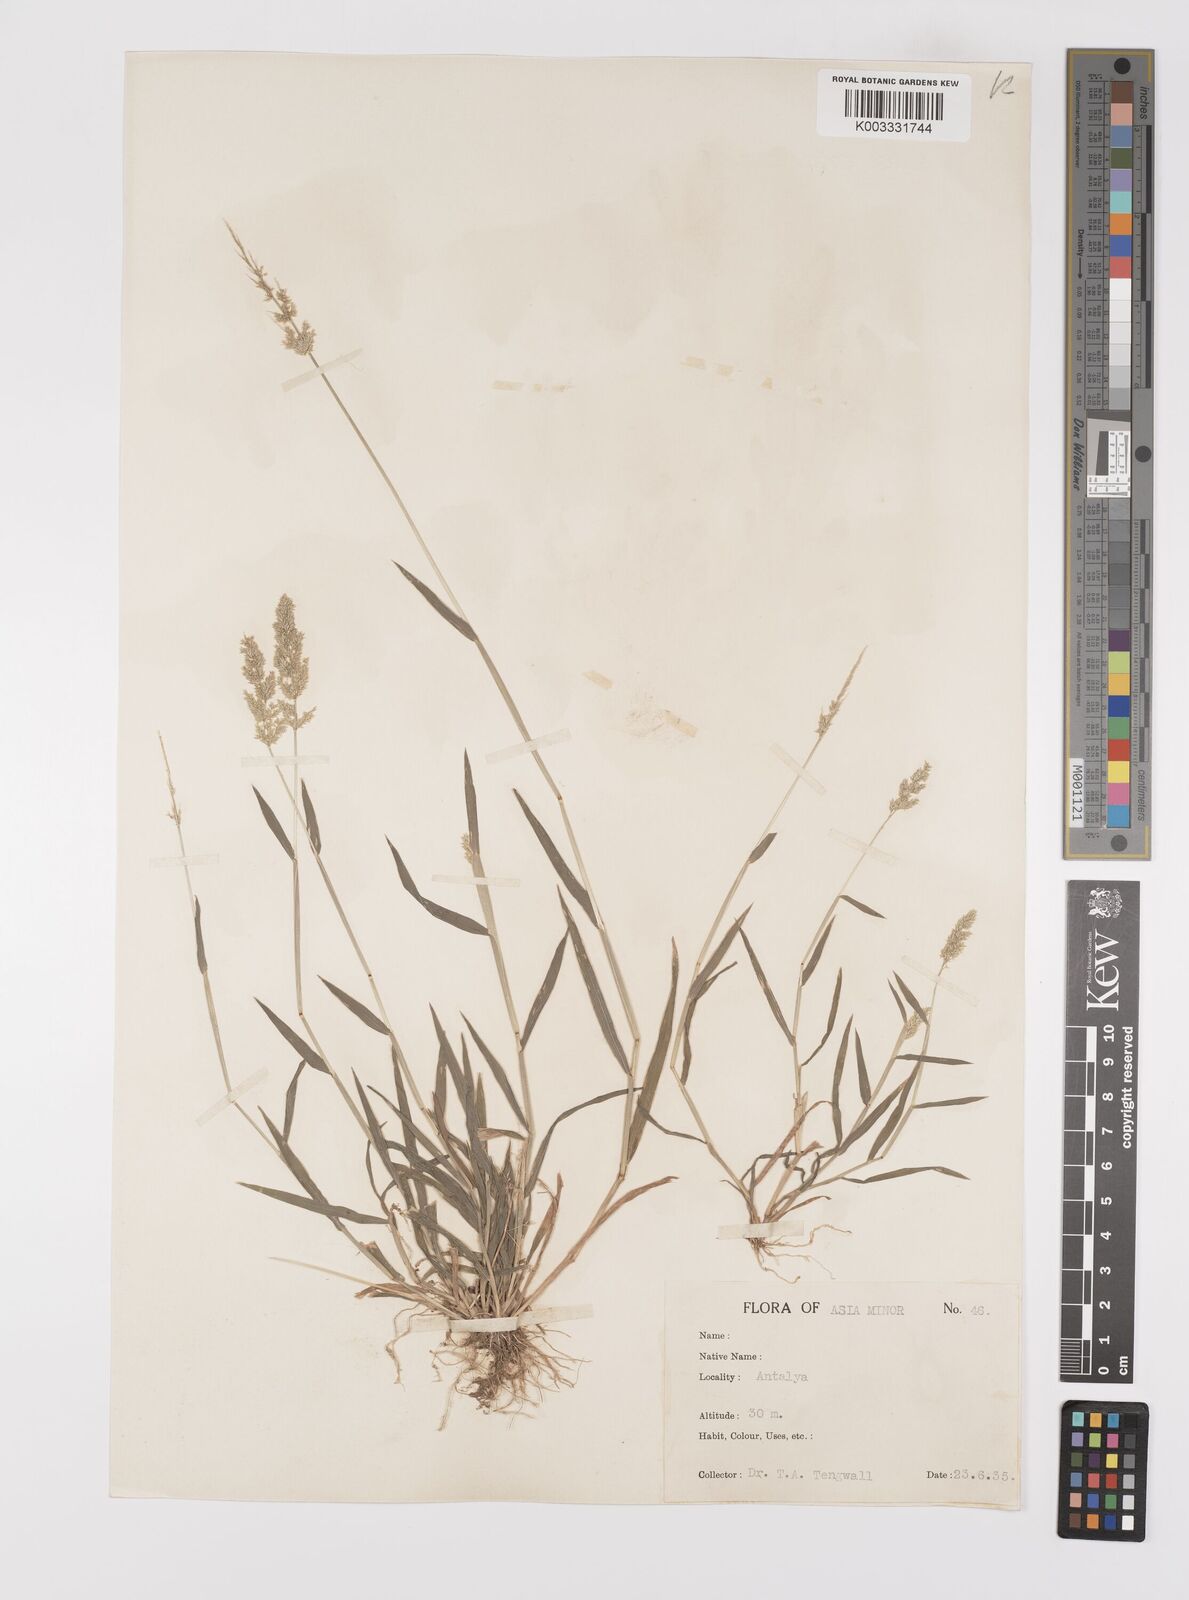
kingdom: Plantae
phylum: Tracheophyta
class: Liliopsida
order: Poales
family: Poaceae
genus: Polypogon
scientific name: Polypogon viridis
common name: Water bent
